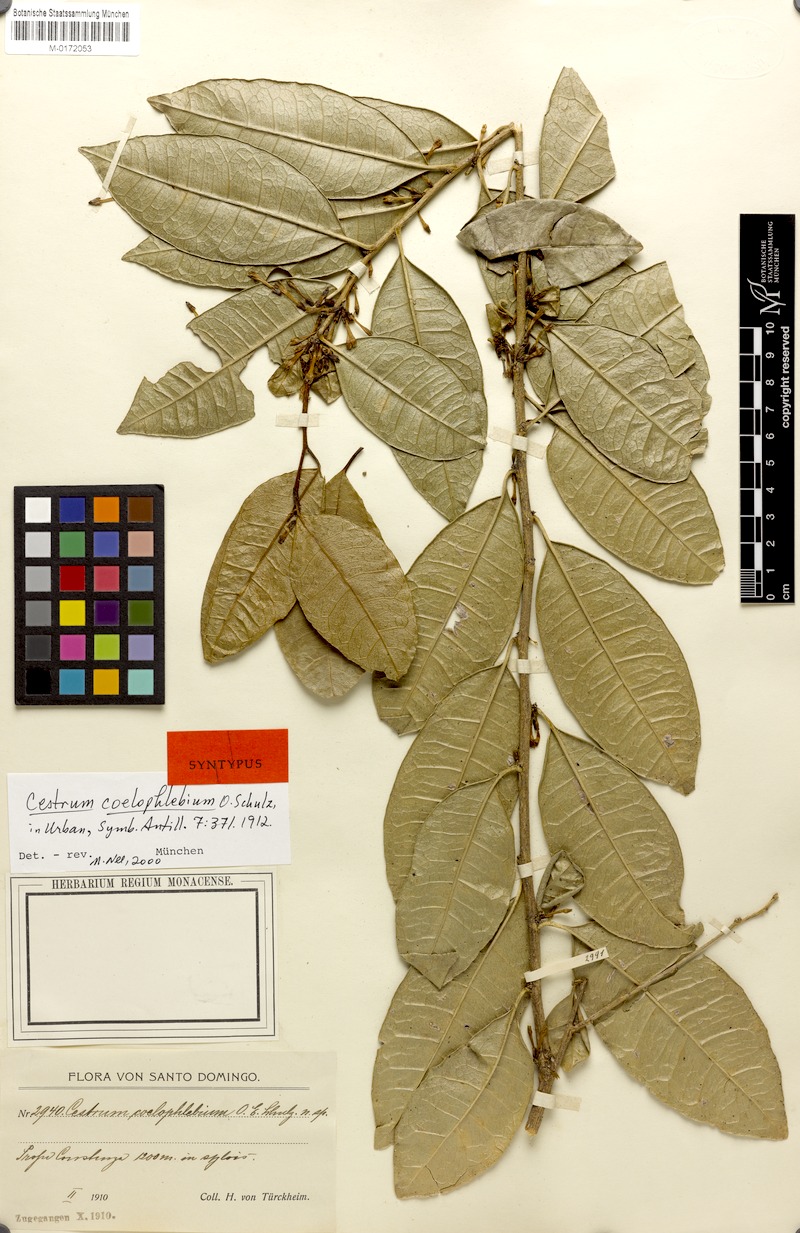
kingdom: Plantae
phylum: Tracheophyta
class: Magnoliopsida
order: Solanales
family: Solanaceae
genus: Cestrum
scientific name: Cestrum coelophlebium
